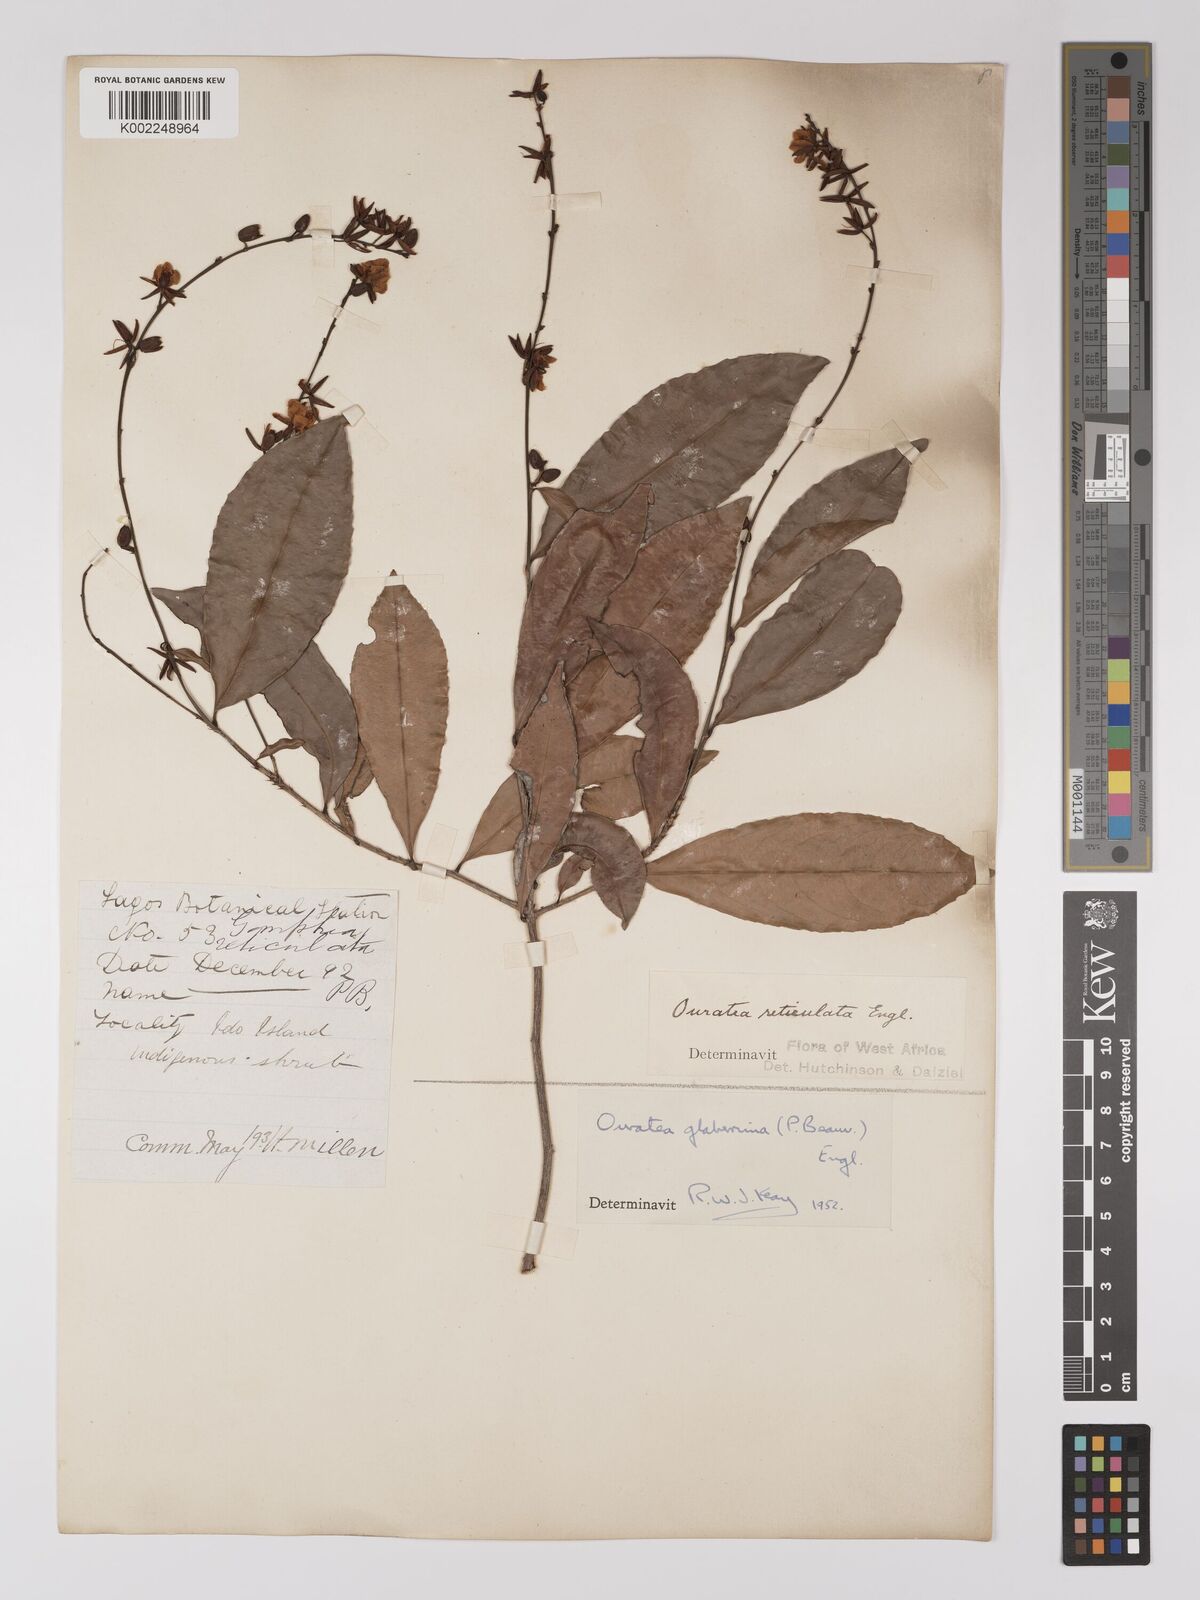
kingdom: Plantae
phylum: Tracheophyta
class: Magnoliopsida
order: Malpighiales
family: Ochnaceae
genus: Campylospermum
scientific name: Campylospermum glaberrimum
